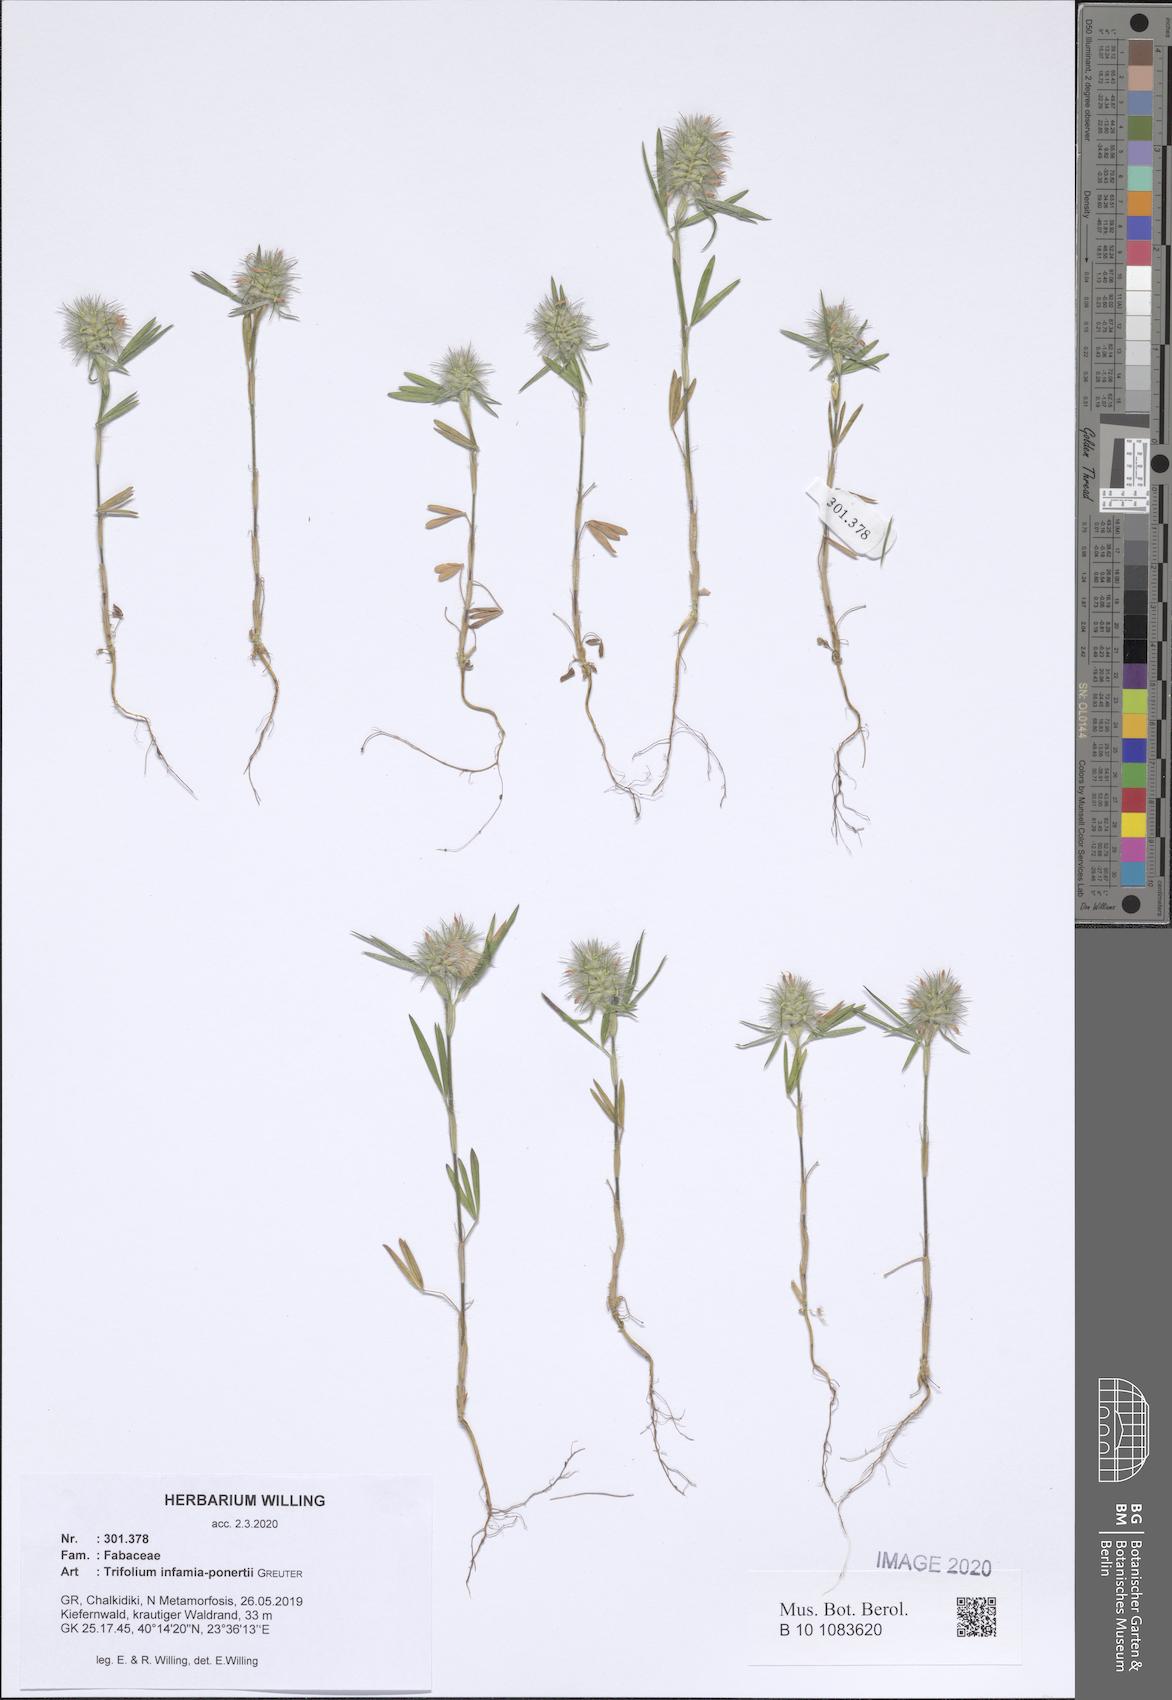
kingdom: Plantae
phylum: Tracheophyta
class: Magnoliopsida
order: Fabales
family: Fabaceae
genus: Trifolium
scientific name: Trifolium infamia-ponertii
